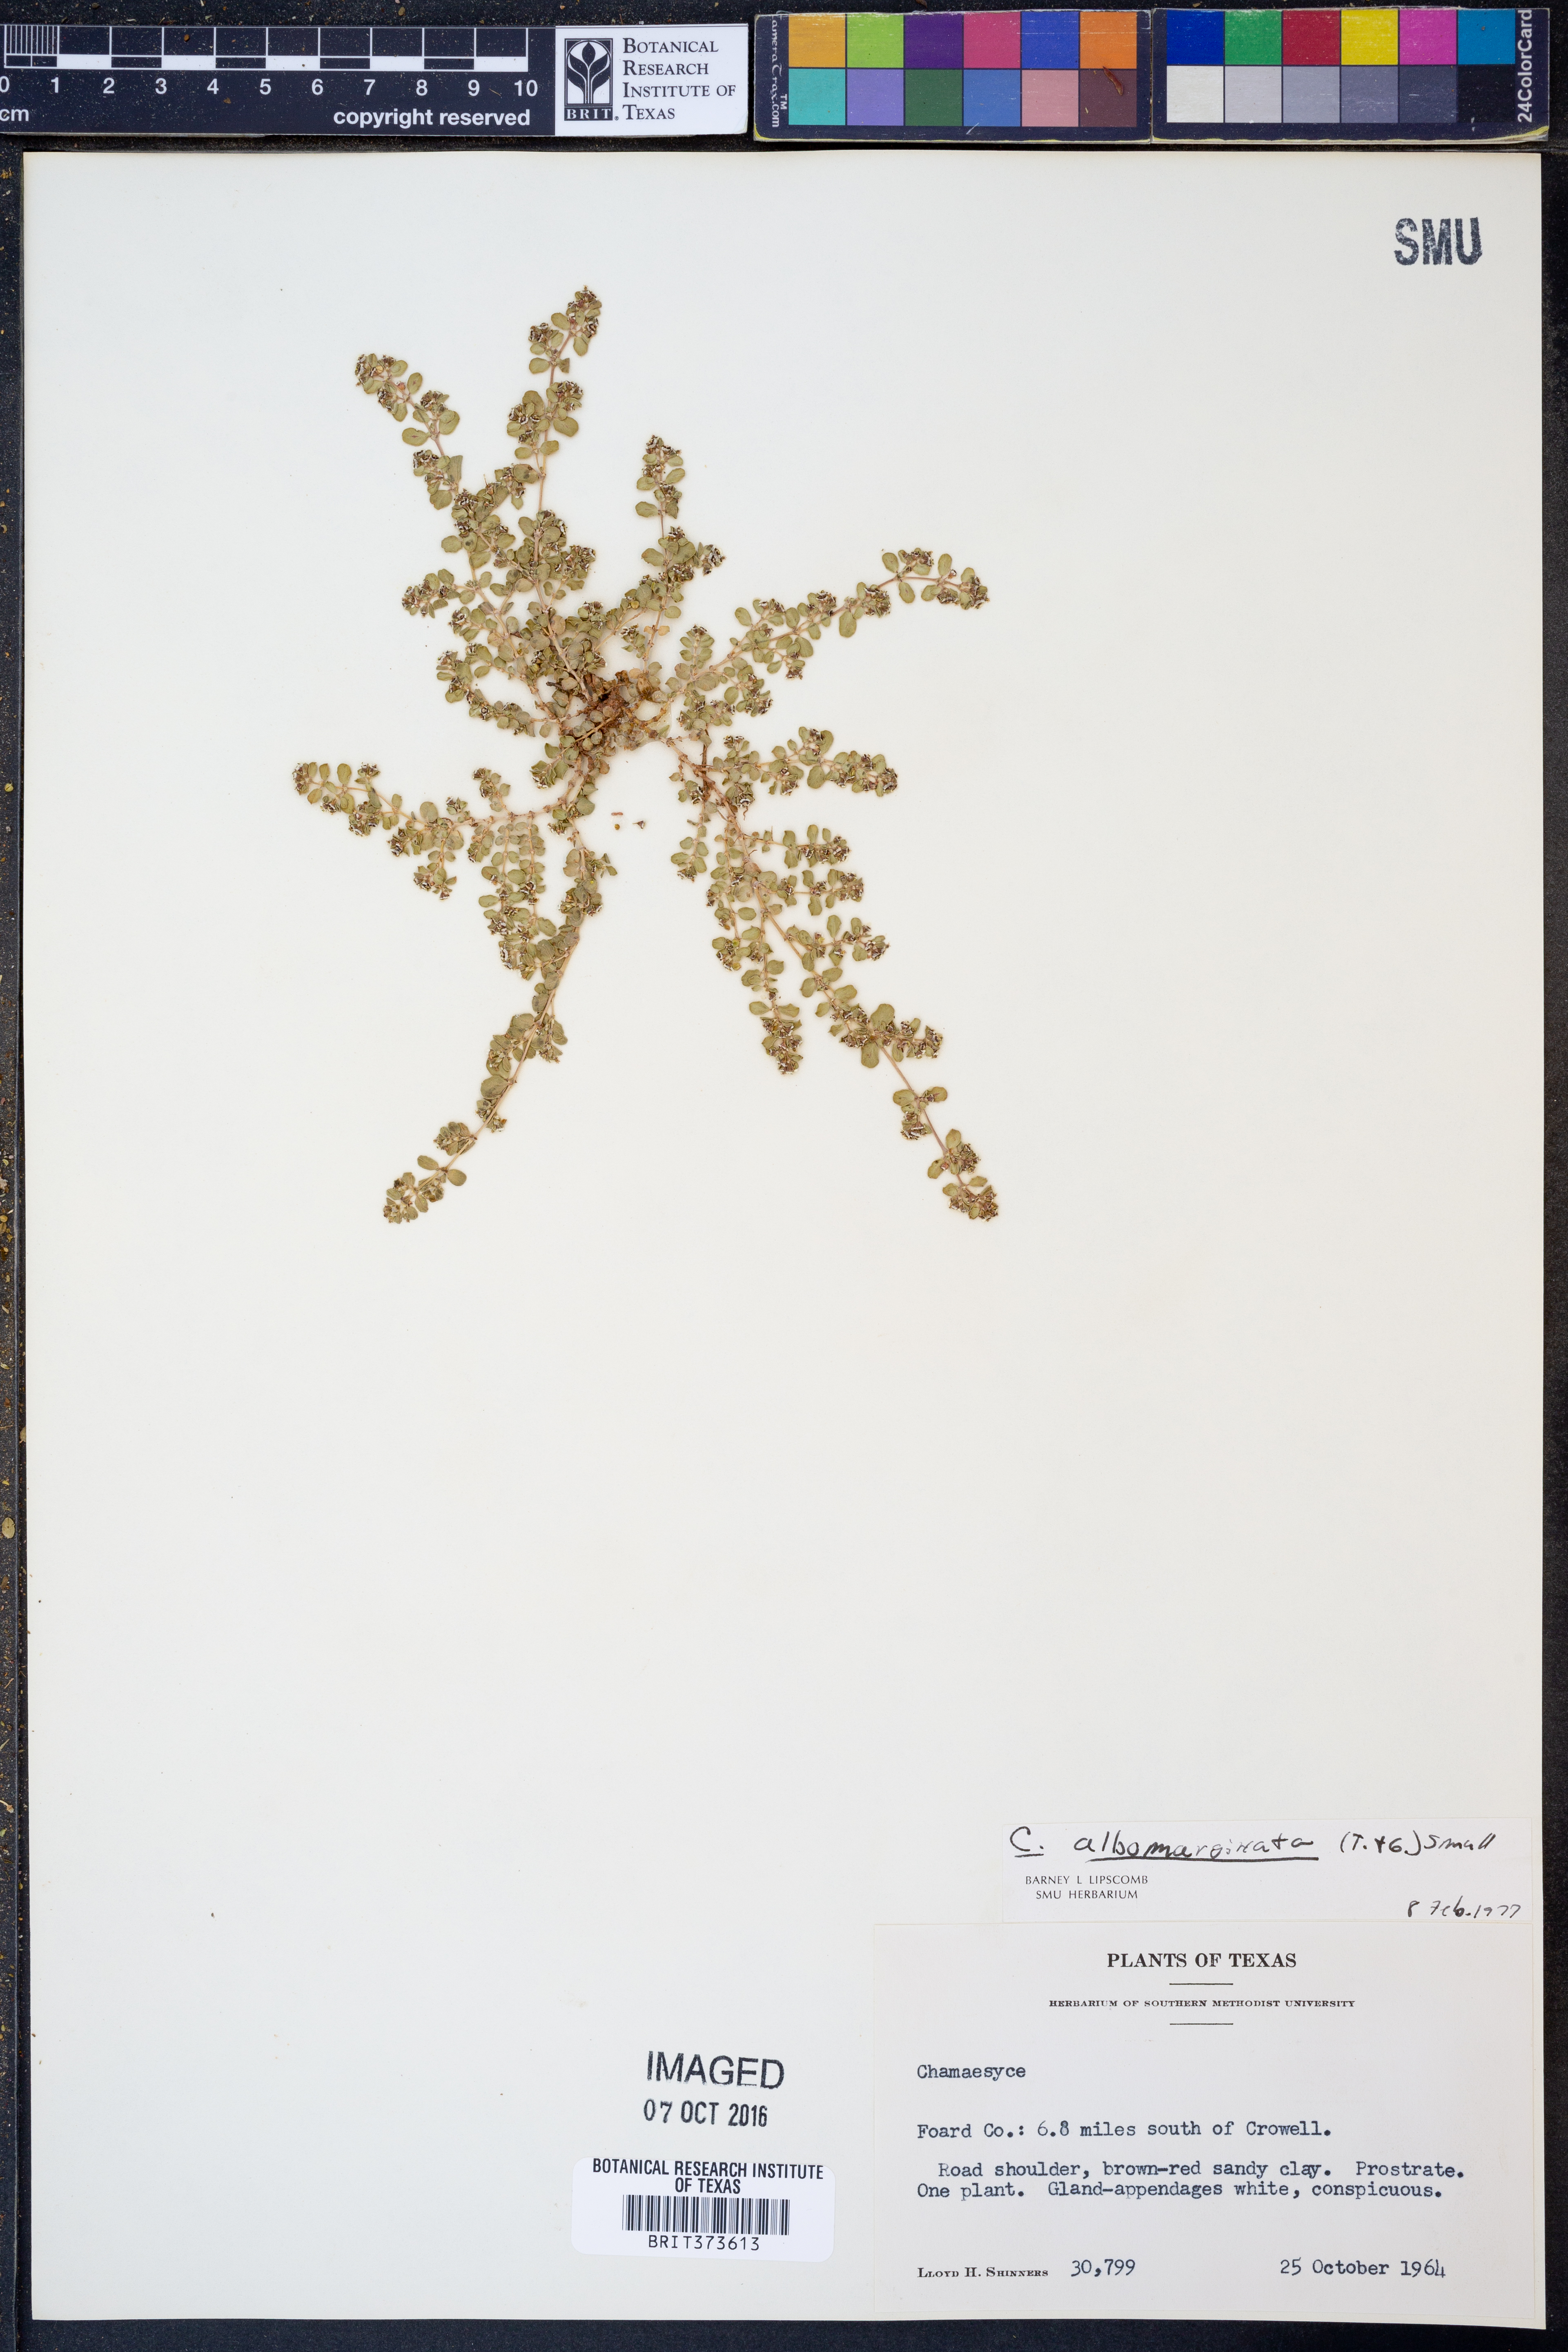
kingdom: Plantae
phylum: Tracheophyta
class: Magnoliopsida
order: Malpighiales
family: Euphorbiaceae
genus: Euphorbia
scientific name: Euphorbia albomarginata
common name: Whitemargin sandmat
